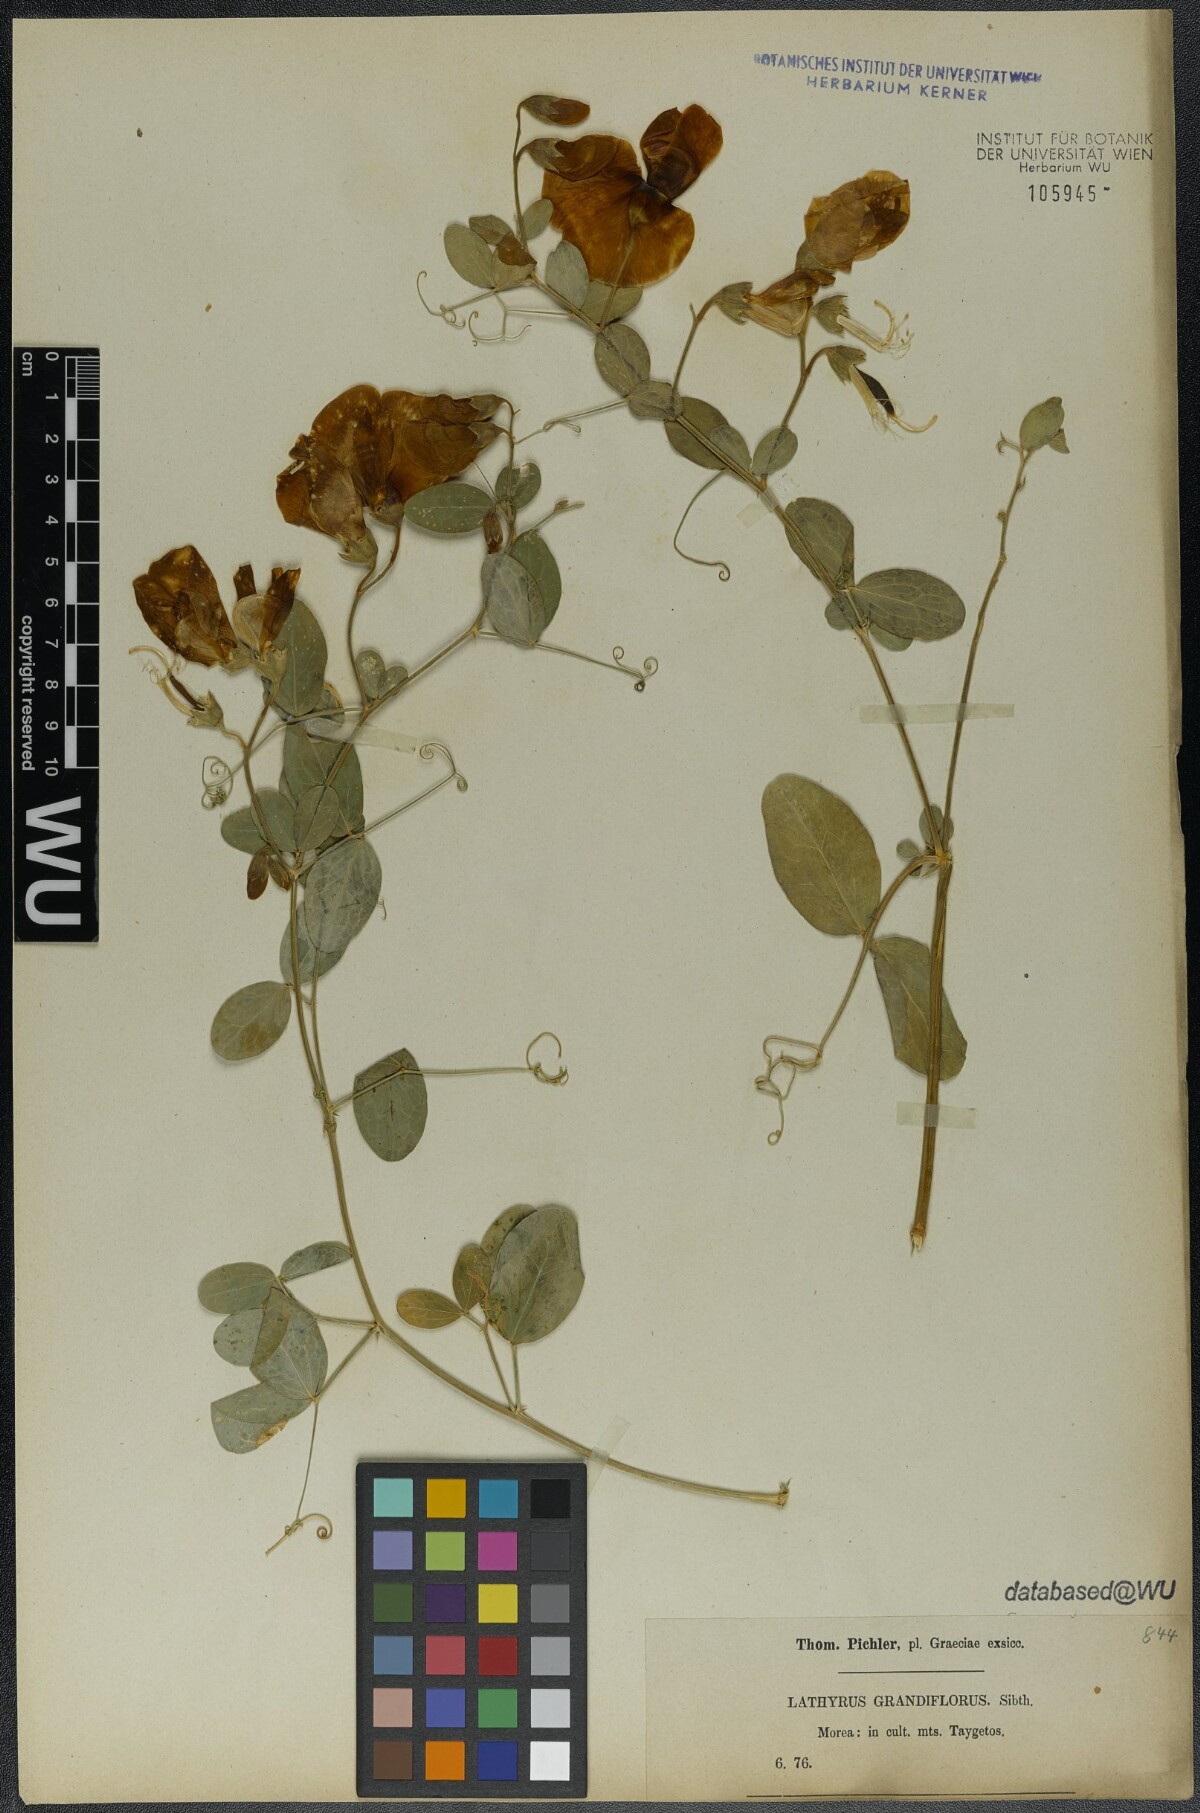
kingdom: Plantae
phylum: Tracheophyta
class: Magnoliopsida
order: Fabales
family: Fabaceae
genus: Lathyrus
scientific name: Lathyrus grandiflorus
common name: Two-flowered everlasting-pea
